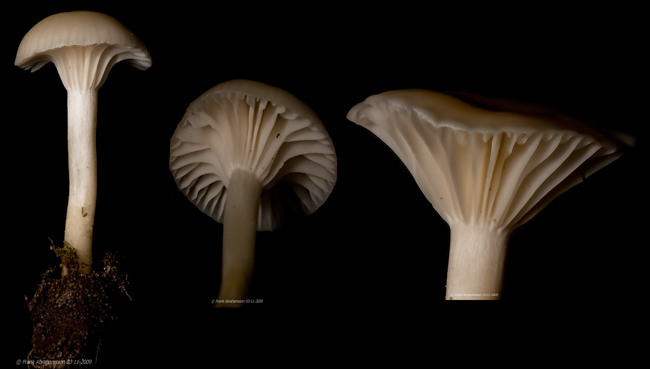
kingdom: Fungi
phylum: Basidiomycota
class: Agaricomycetes
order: Agaricales
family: Hygrophoraceae
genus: Cuphophyllus
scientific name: Cuphophyllus virgineus
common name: snehvid vokshat
